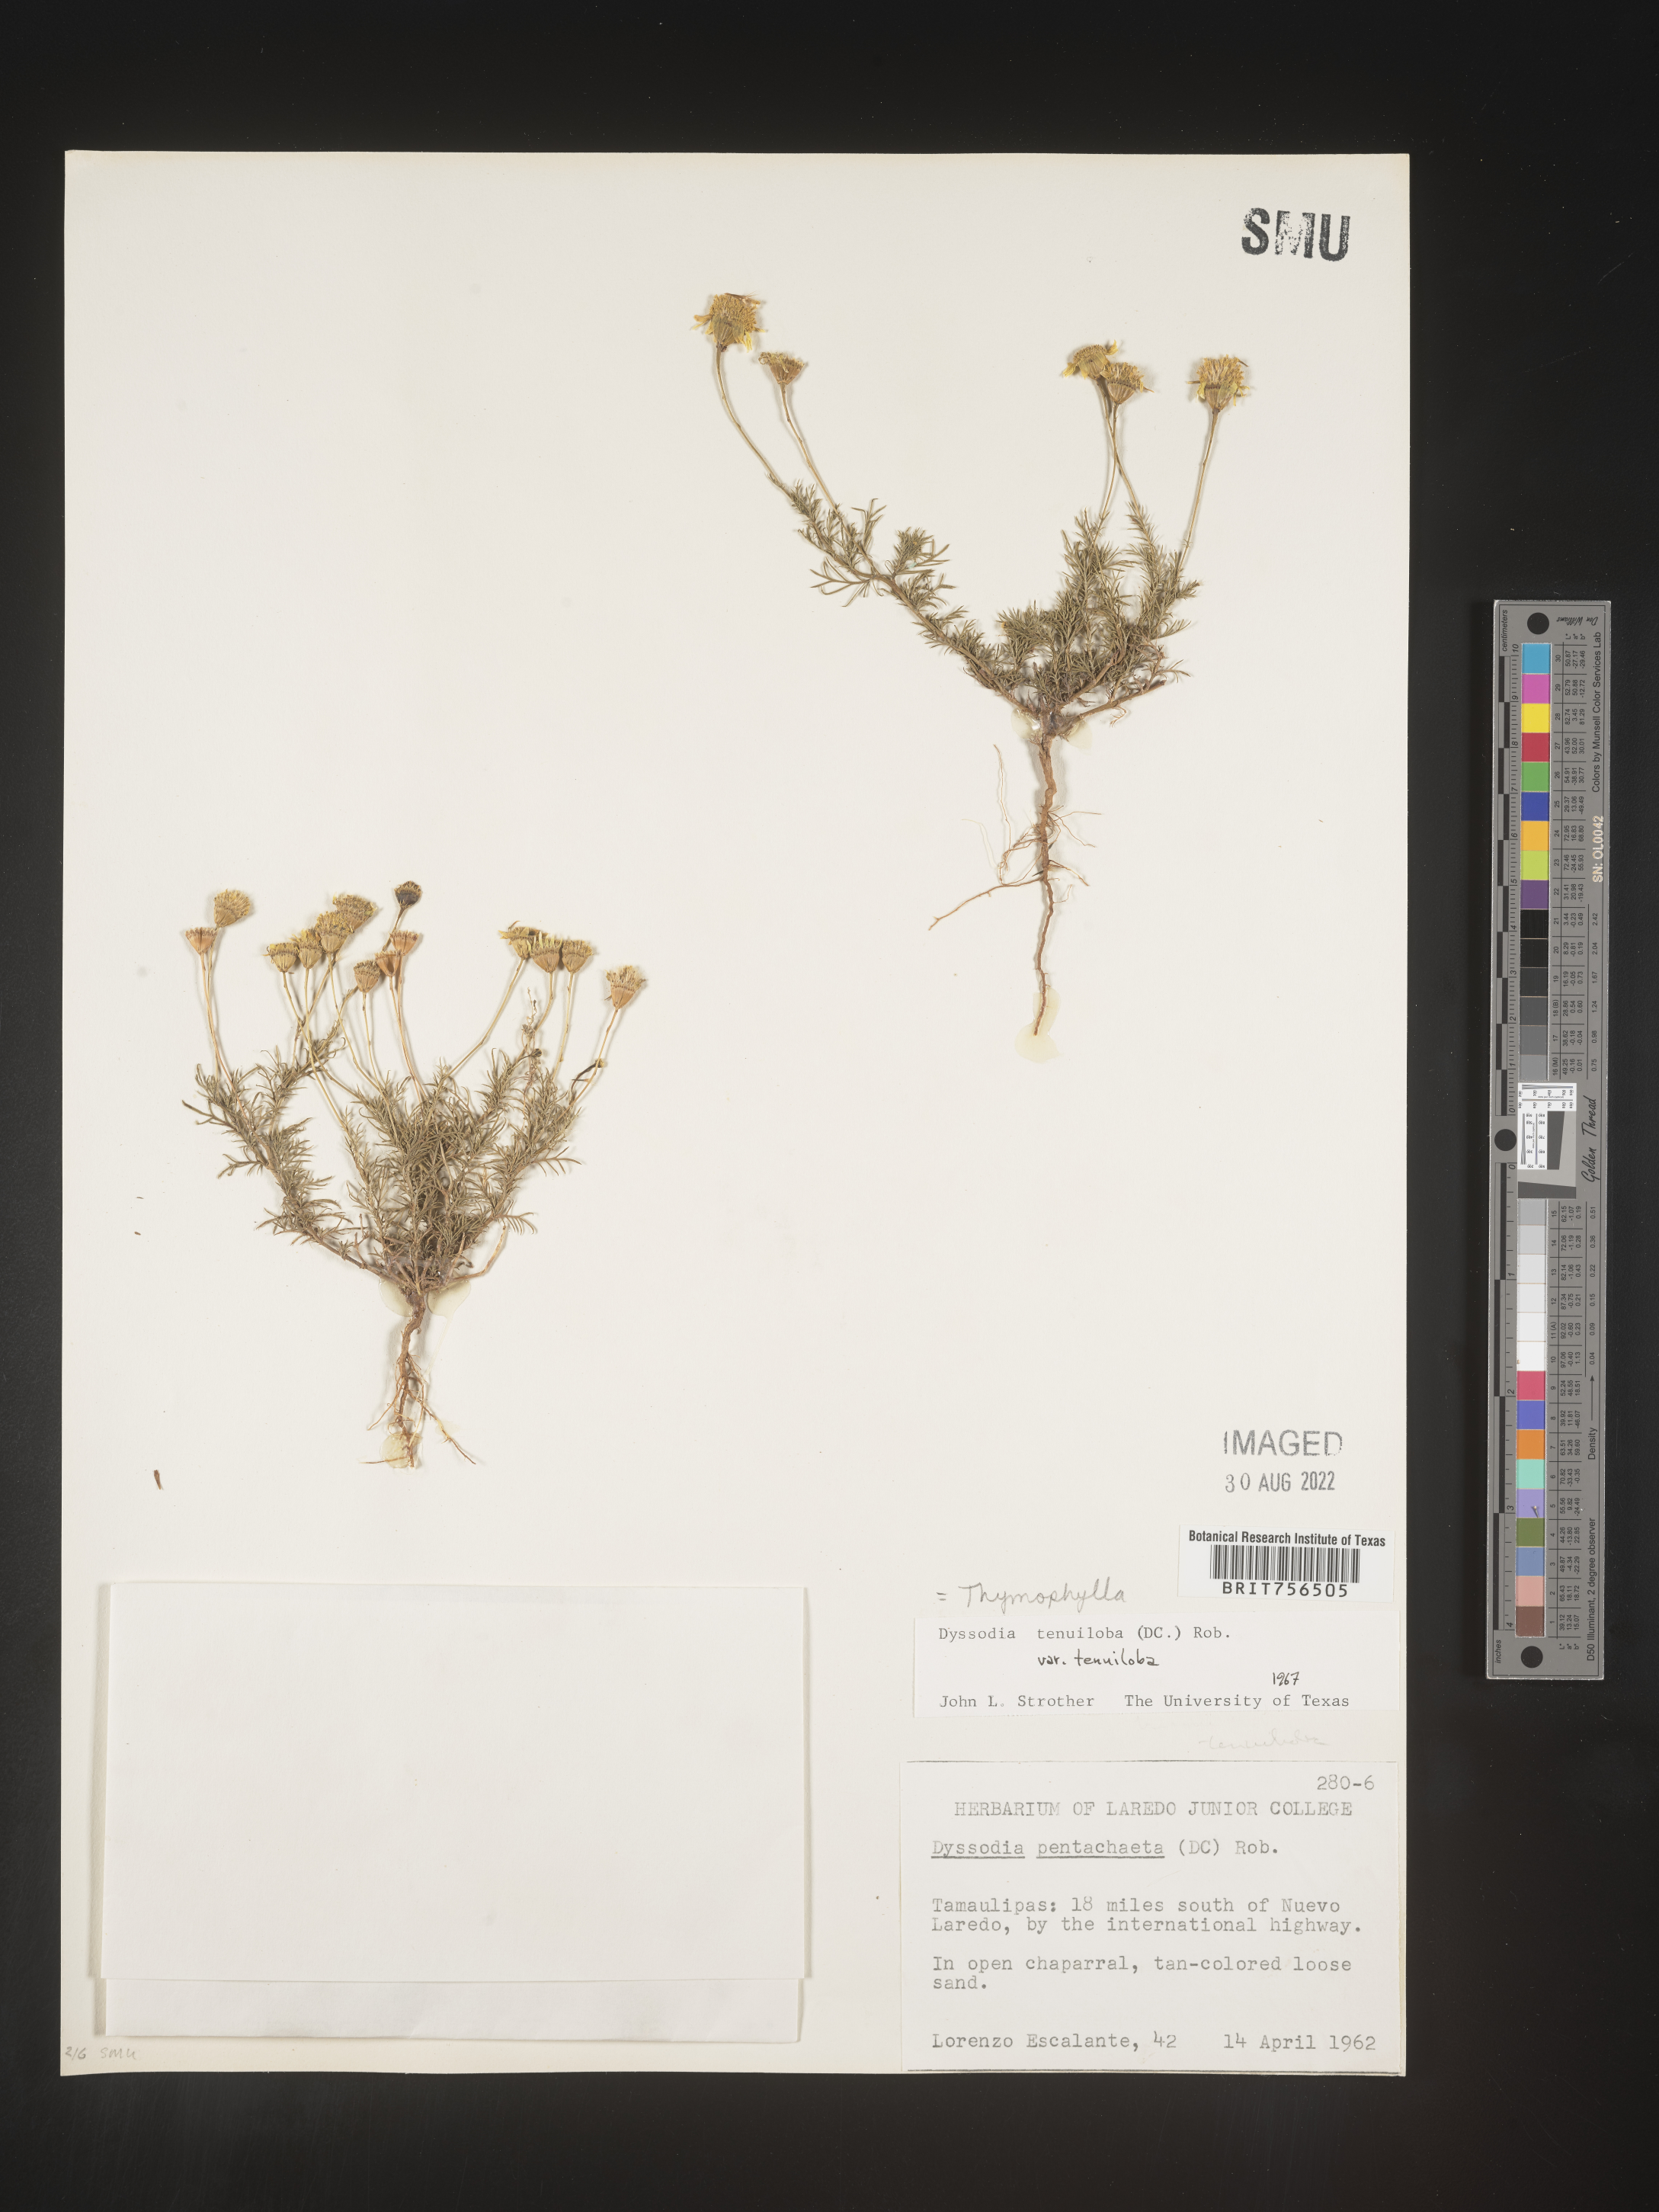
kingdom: Plantae
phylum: Tracheophyta
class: Magnoliopsida
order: Asterales
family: Asteraceae
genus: Thymophylla
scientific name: Thymophylla tenuiloba
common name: Dahlberg's daisy
